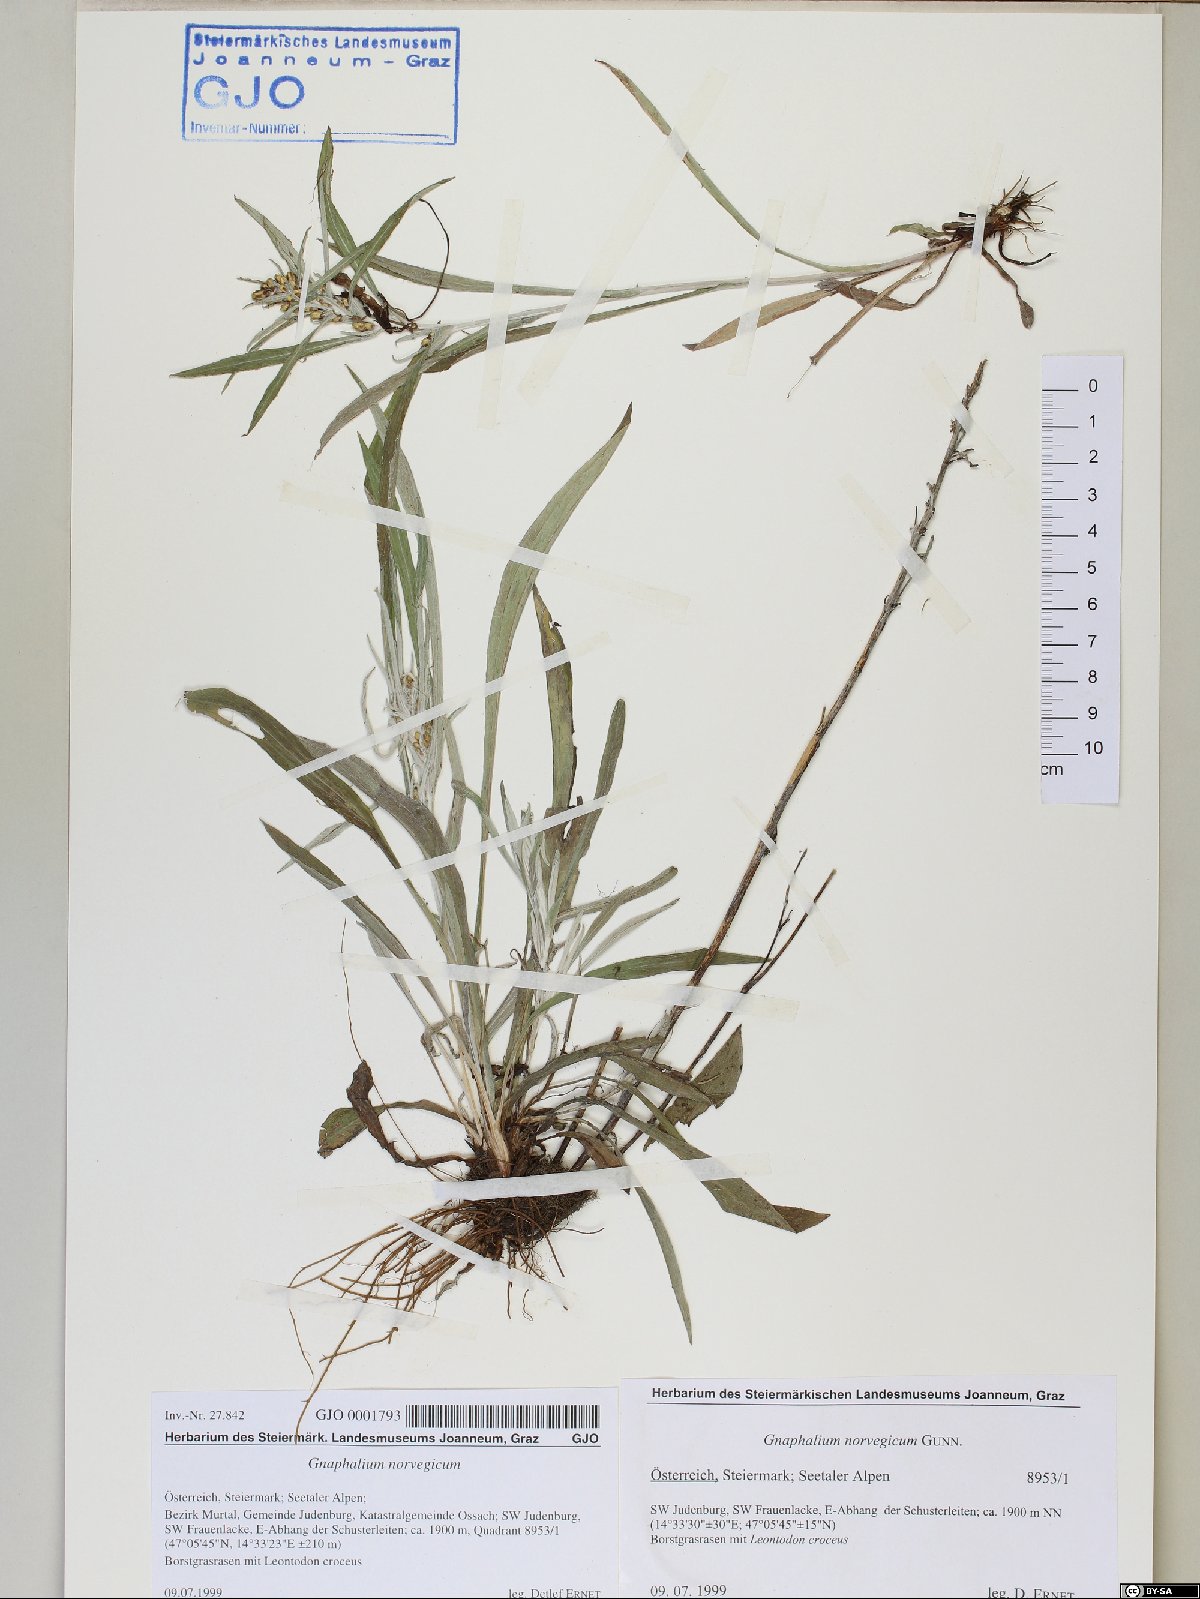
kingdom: Plantae
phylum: Tracheophyta
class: Magnoliopsida
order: Asterales
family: Asteraceae
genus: Omalotheca
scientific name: Omalotheca norvegica
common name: Norwegian arctic-cudweed
